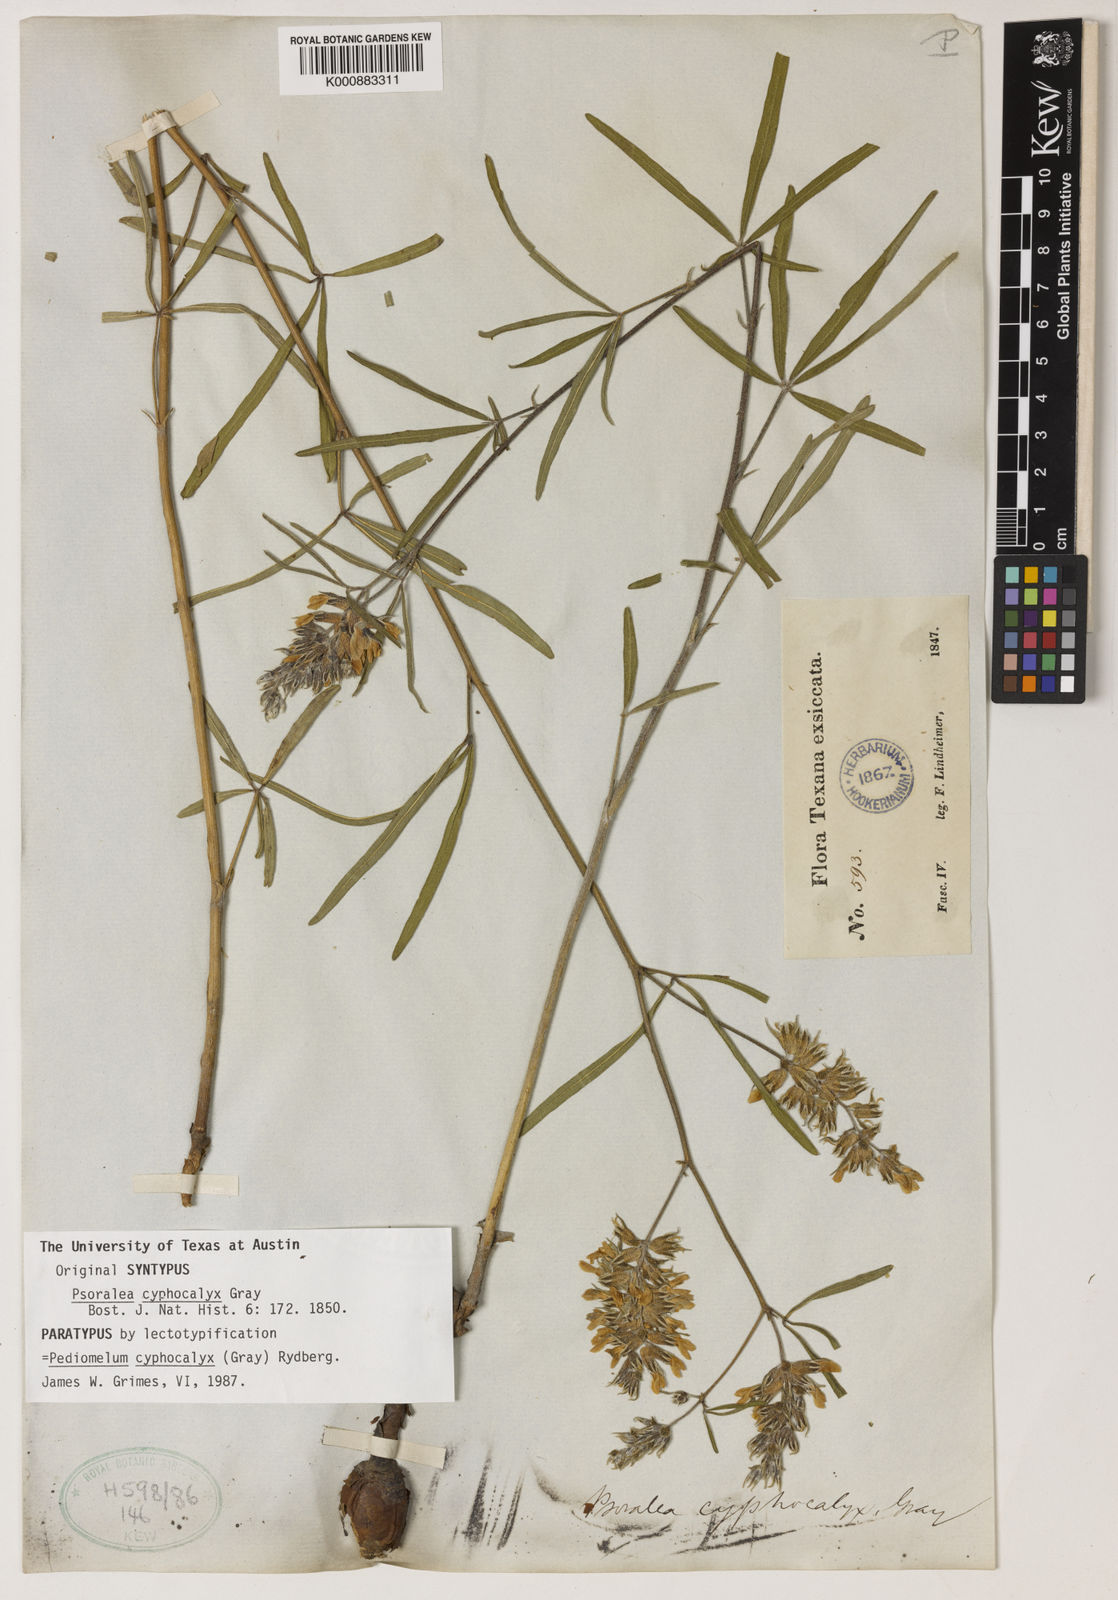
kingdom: Plantae
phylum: Tracheophyta
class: Magnoliopsida
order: Fabales
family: Fabaceae
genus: Pediomelum
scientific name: Pediomelum cyphocalyx
